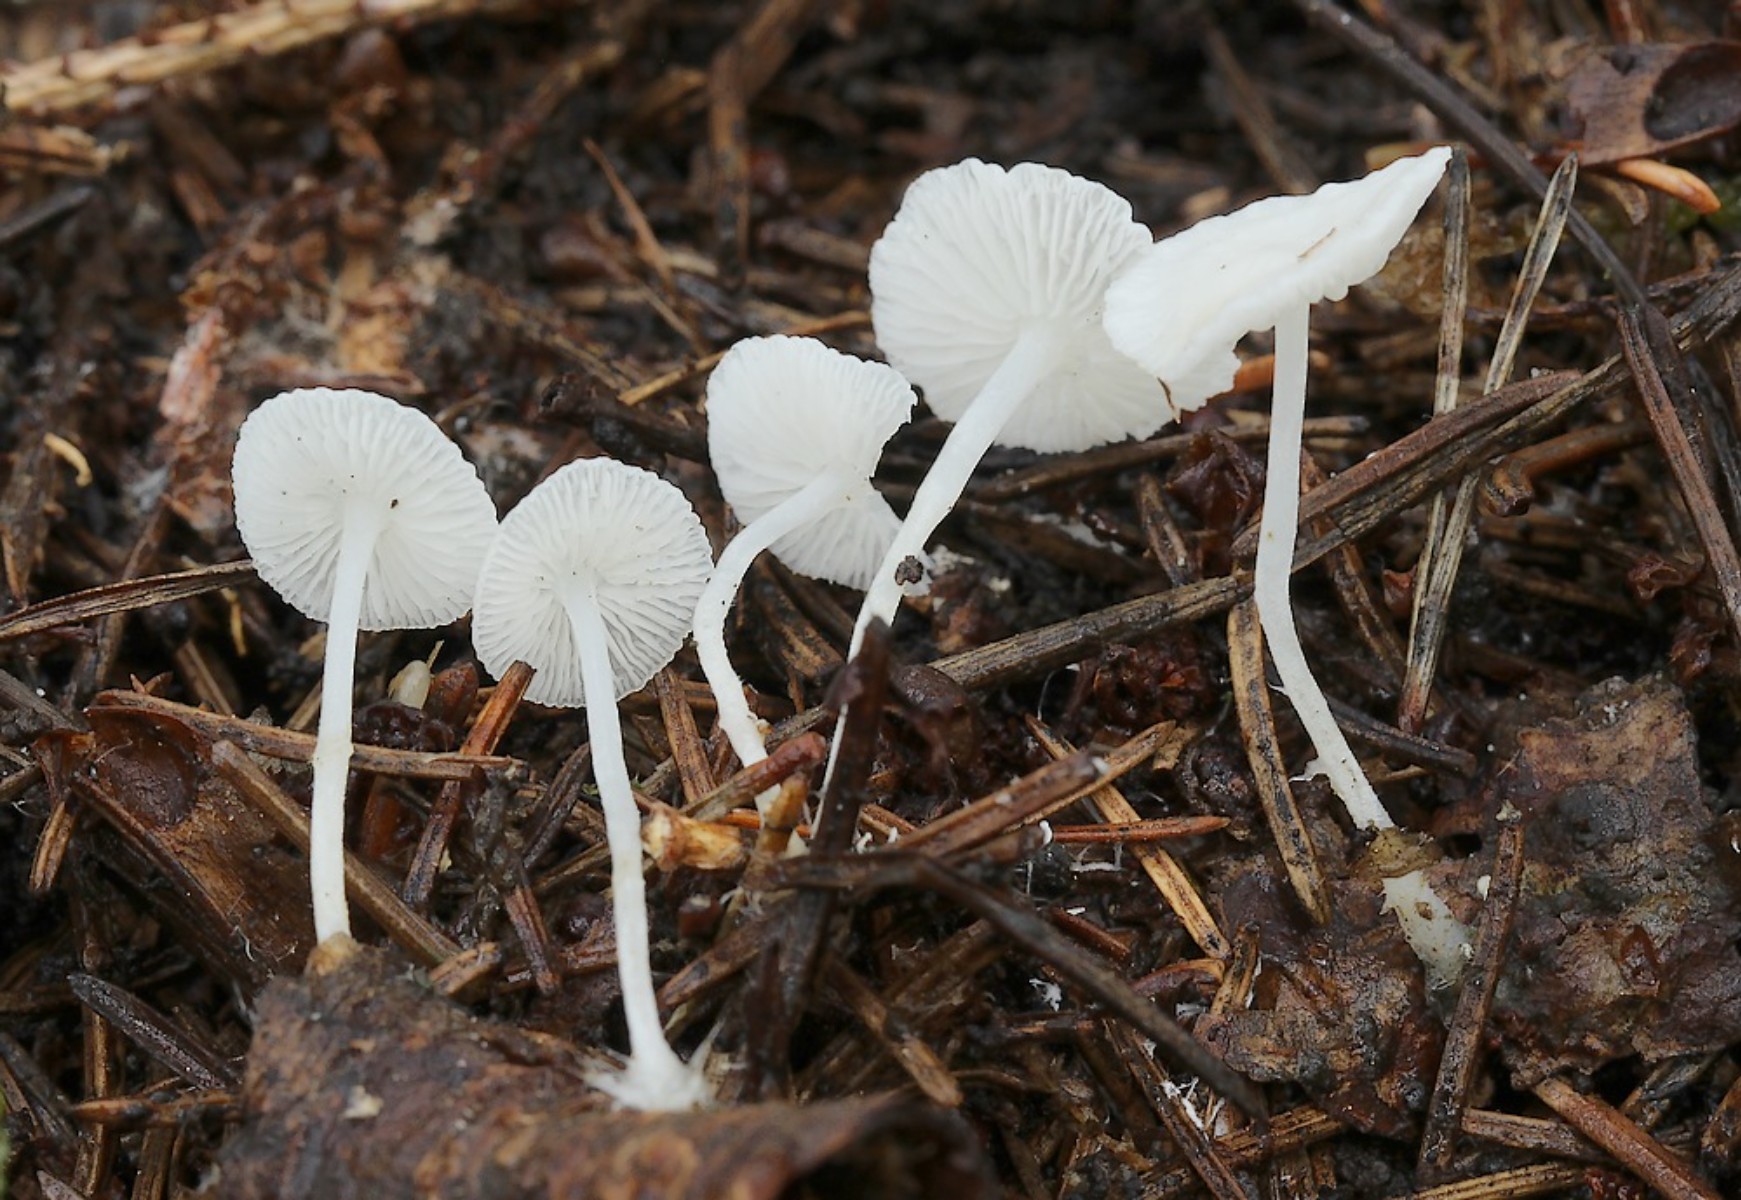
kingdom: Fungi
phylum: Basidiomycota
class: Agaricomycetes
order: Agaricales
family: Mycenaceae
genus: Hemimycena
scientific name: Hemimycena lactea
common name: mælkehvid huesvamp
